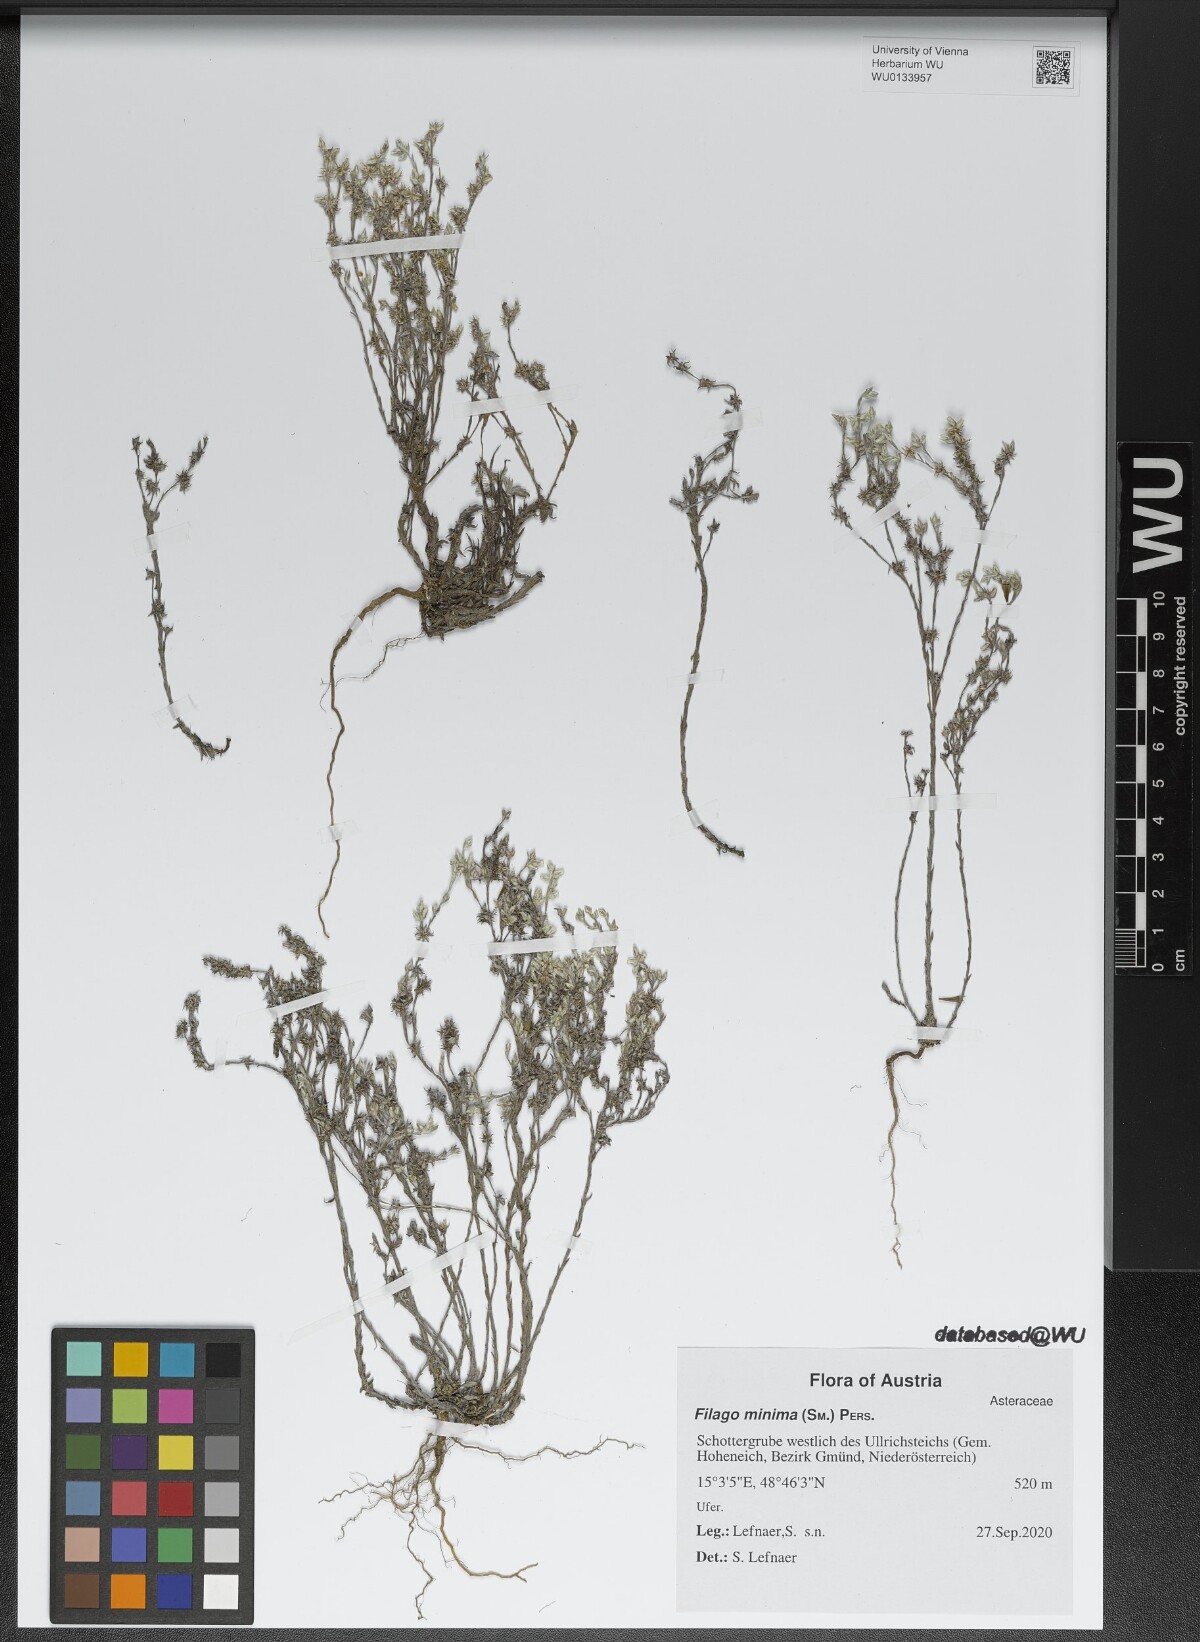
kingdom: Plantae
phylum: Tracheophyta
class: Magnoliopsida
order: Asterales
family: Asteraceae
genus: Logfia
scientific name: Logfia minima
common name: Little cottonrose
